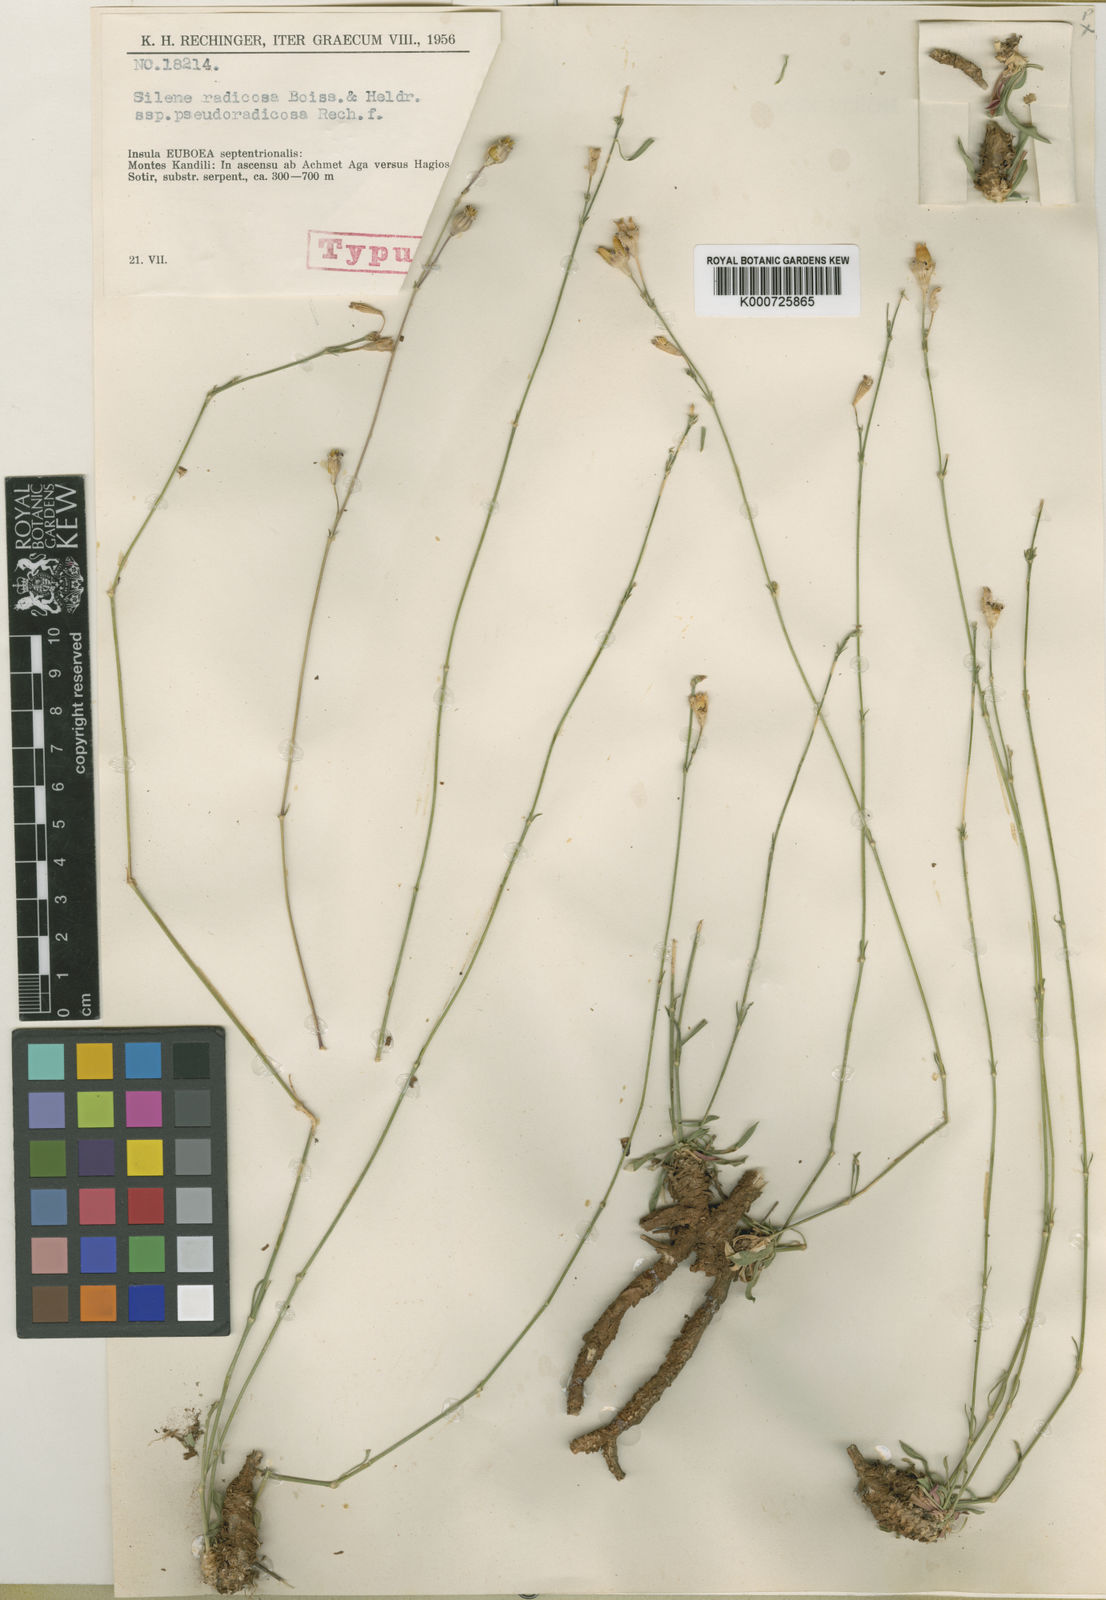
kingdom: Plantae
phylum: Tracheophyta
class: Magnoliopsida
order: Caryophyllales
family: Caryophyllaceae
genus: Silene
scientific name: Silene radicosa
